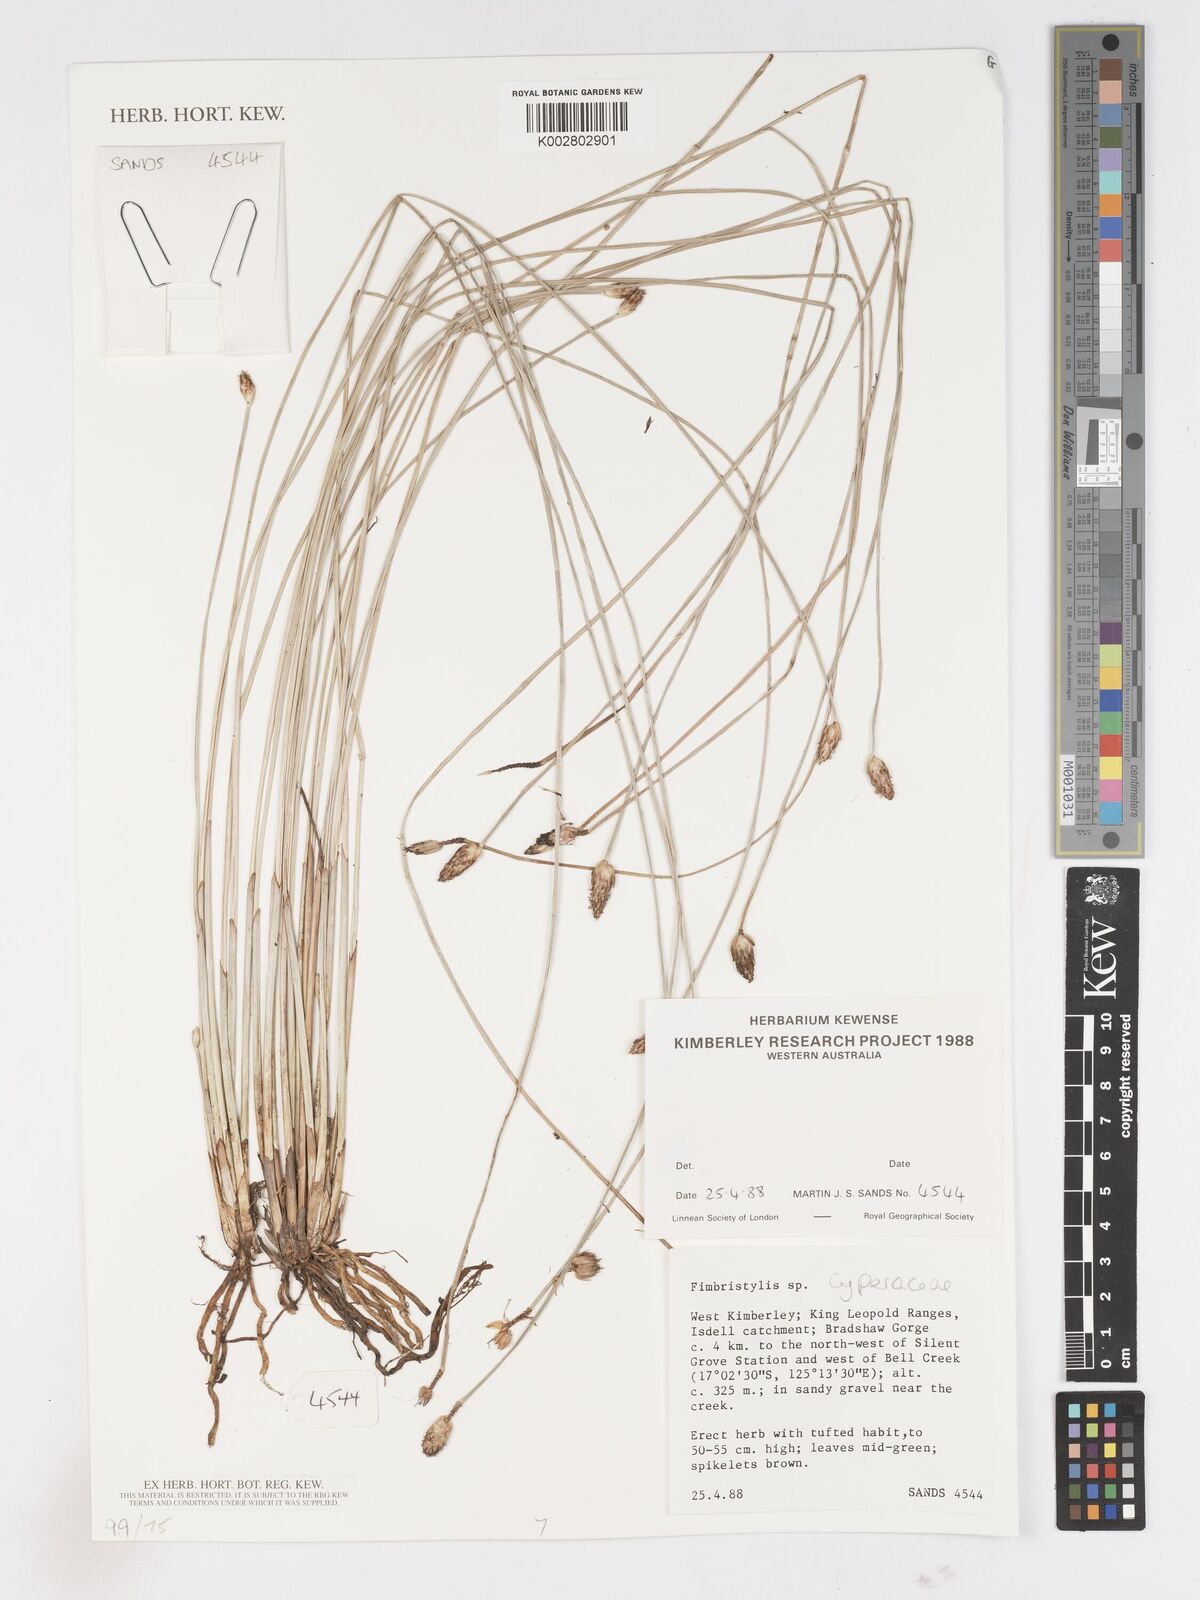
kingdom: Plantae
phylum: Tracheophyta
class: Liliopsida
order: Poales
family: Cyperaceae
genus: Fimbristylis
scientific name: Fimbristylis
